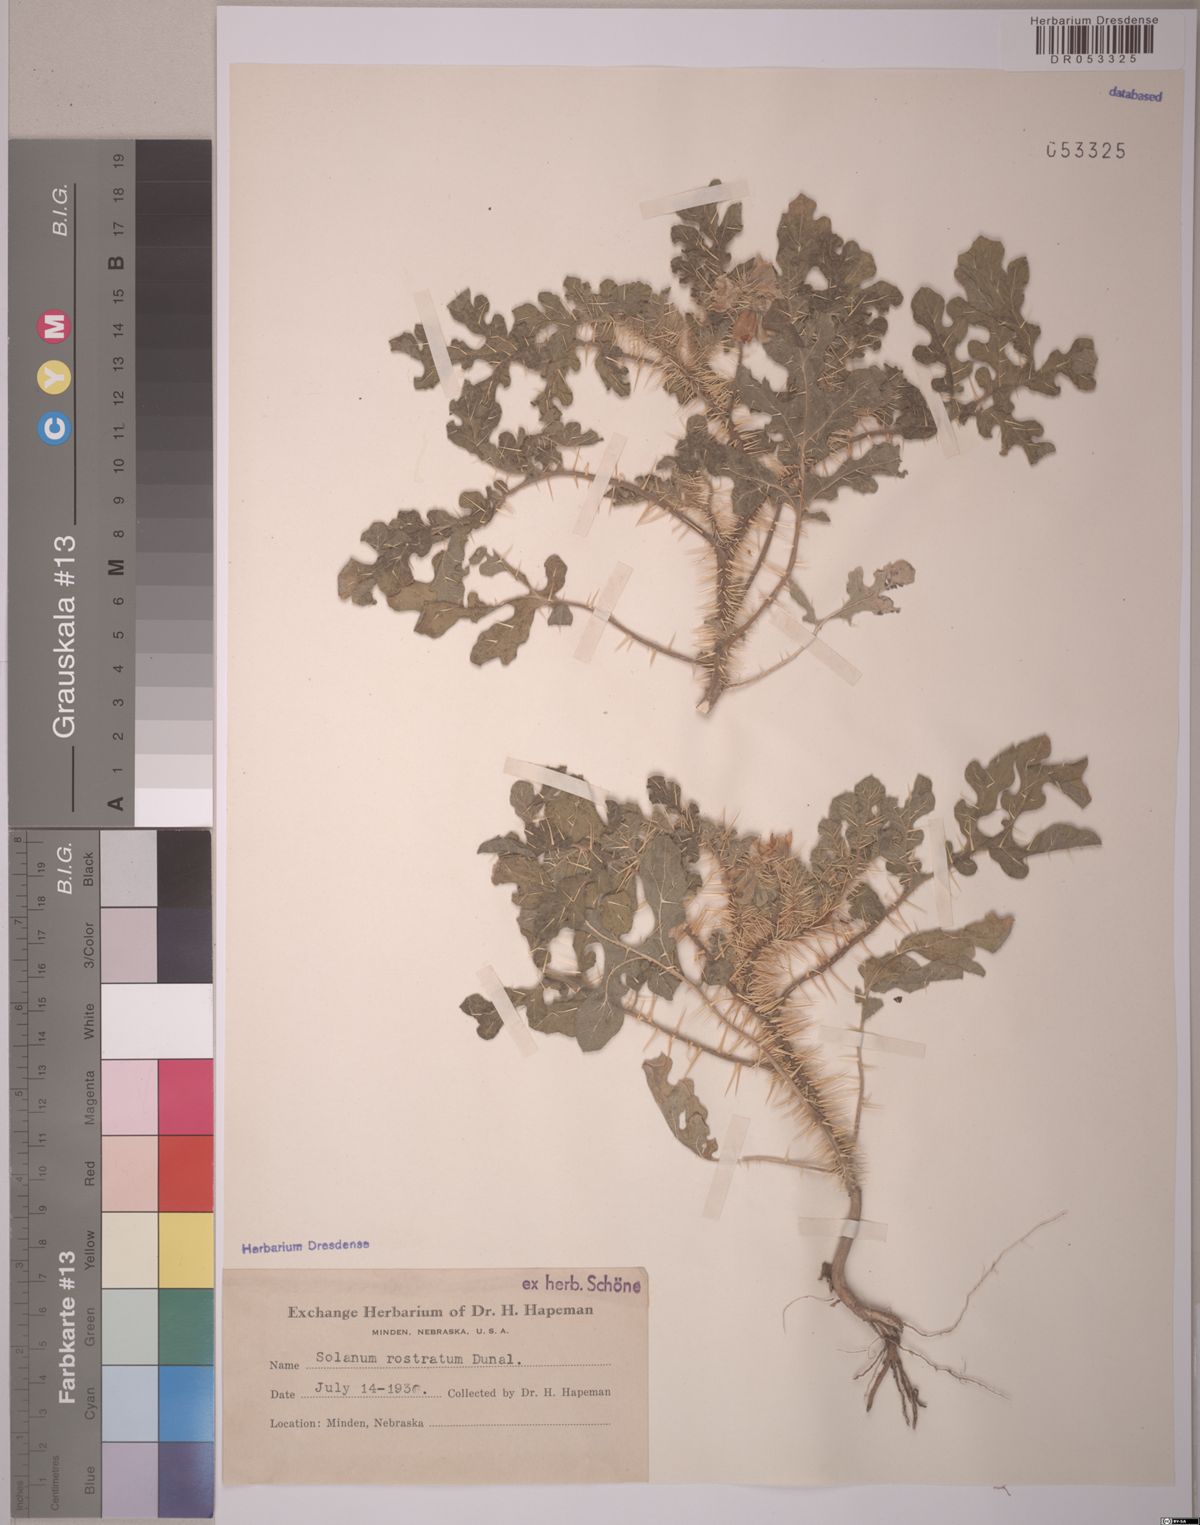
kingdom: Plantae
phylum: Tracheophyta
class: Magnoliopsida
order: Solanales
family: Solanaceae
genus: Solanum
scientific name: Solanum angustifolium
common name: Buffalobur nightshade
